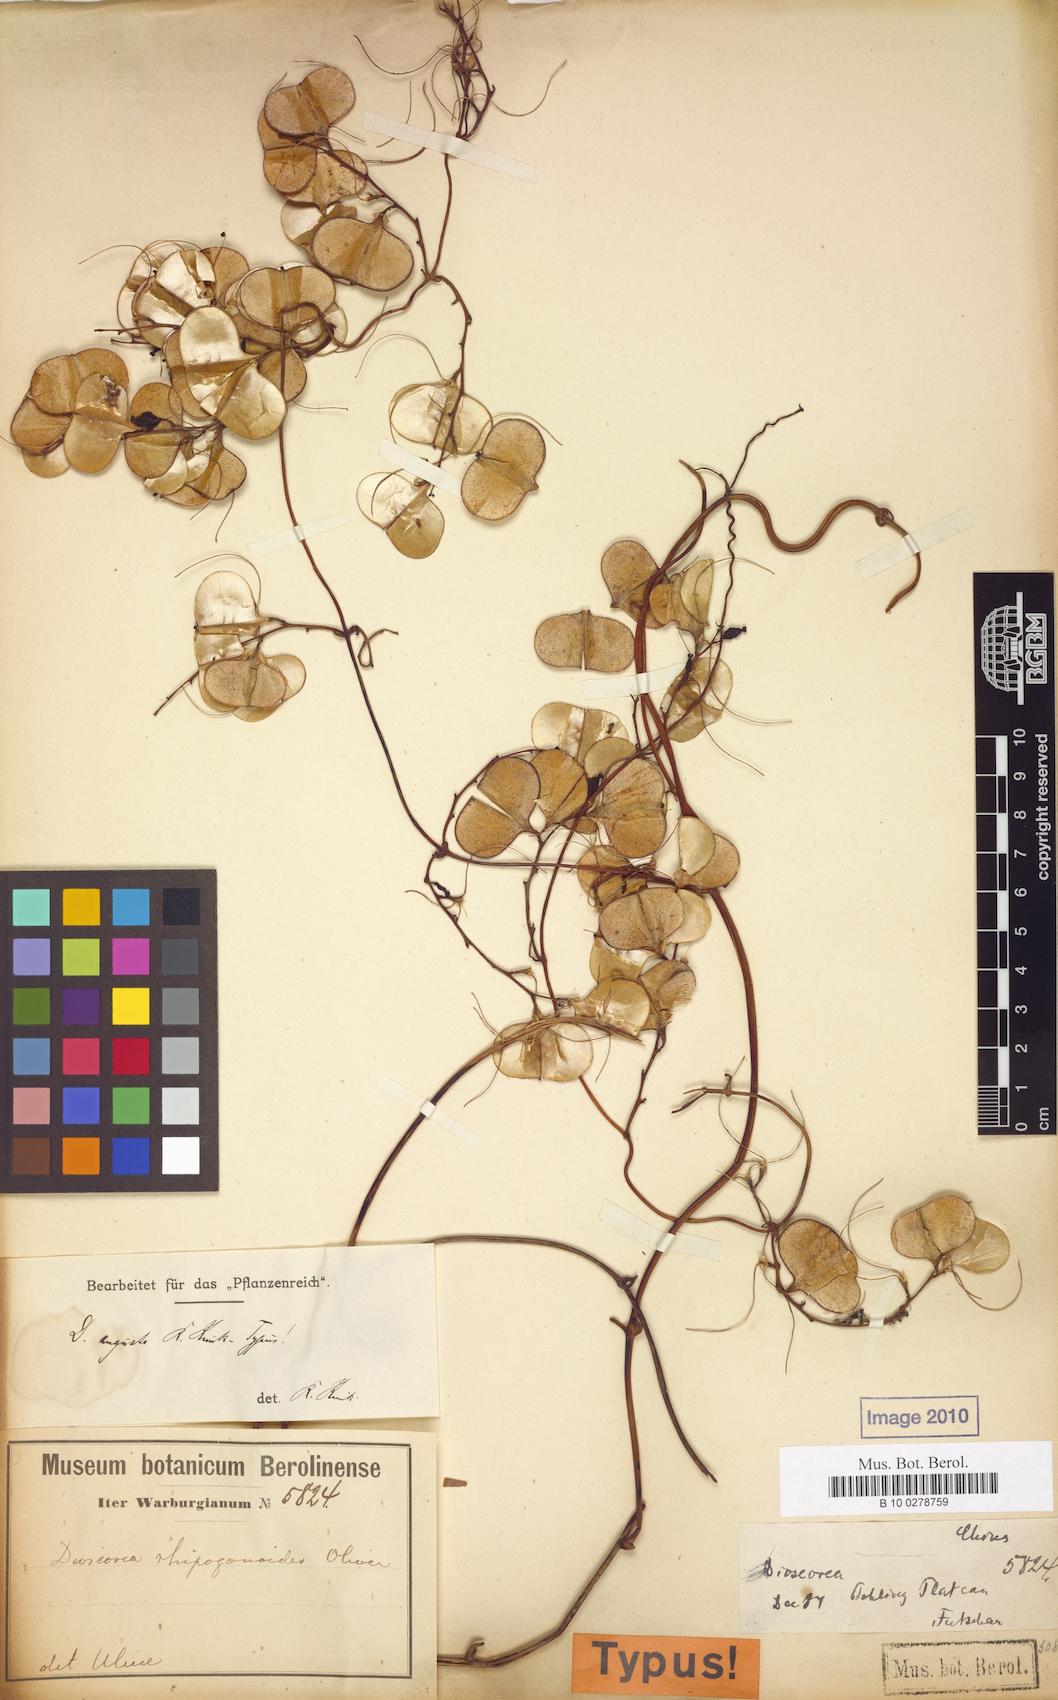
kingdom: Plantae
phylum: Tracheophyta
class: Liliopsida
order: Dioscoreales
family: Dioscoreaceae
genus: Dioscorea
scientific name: Dioscorea cirrhosa
